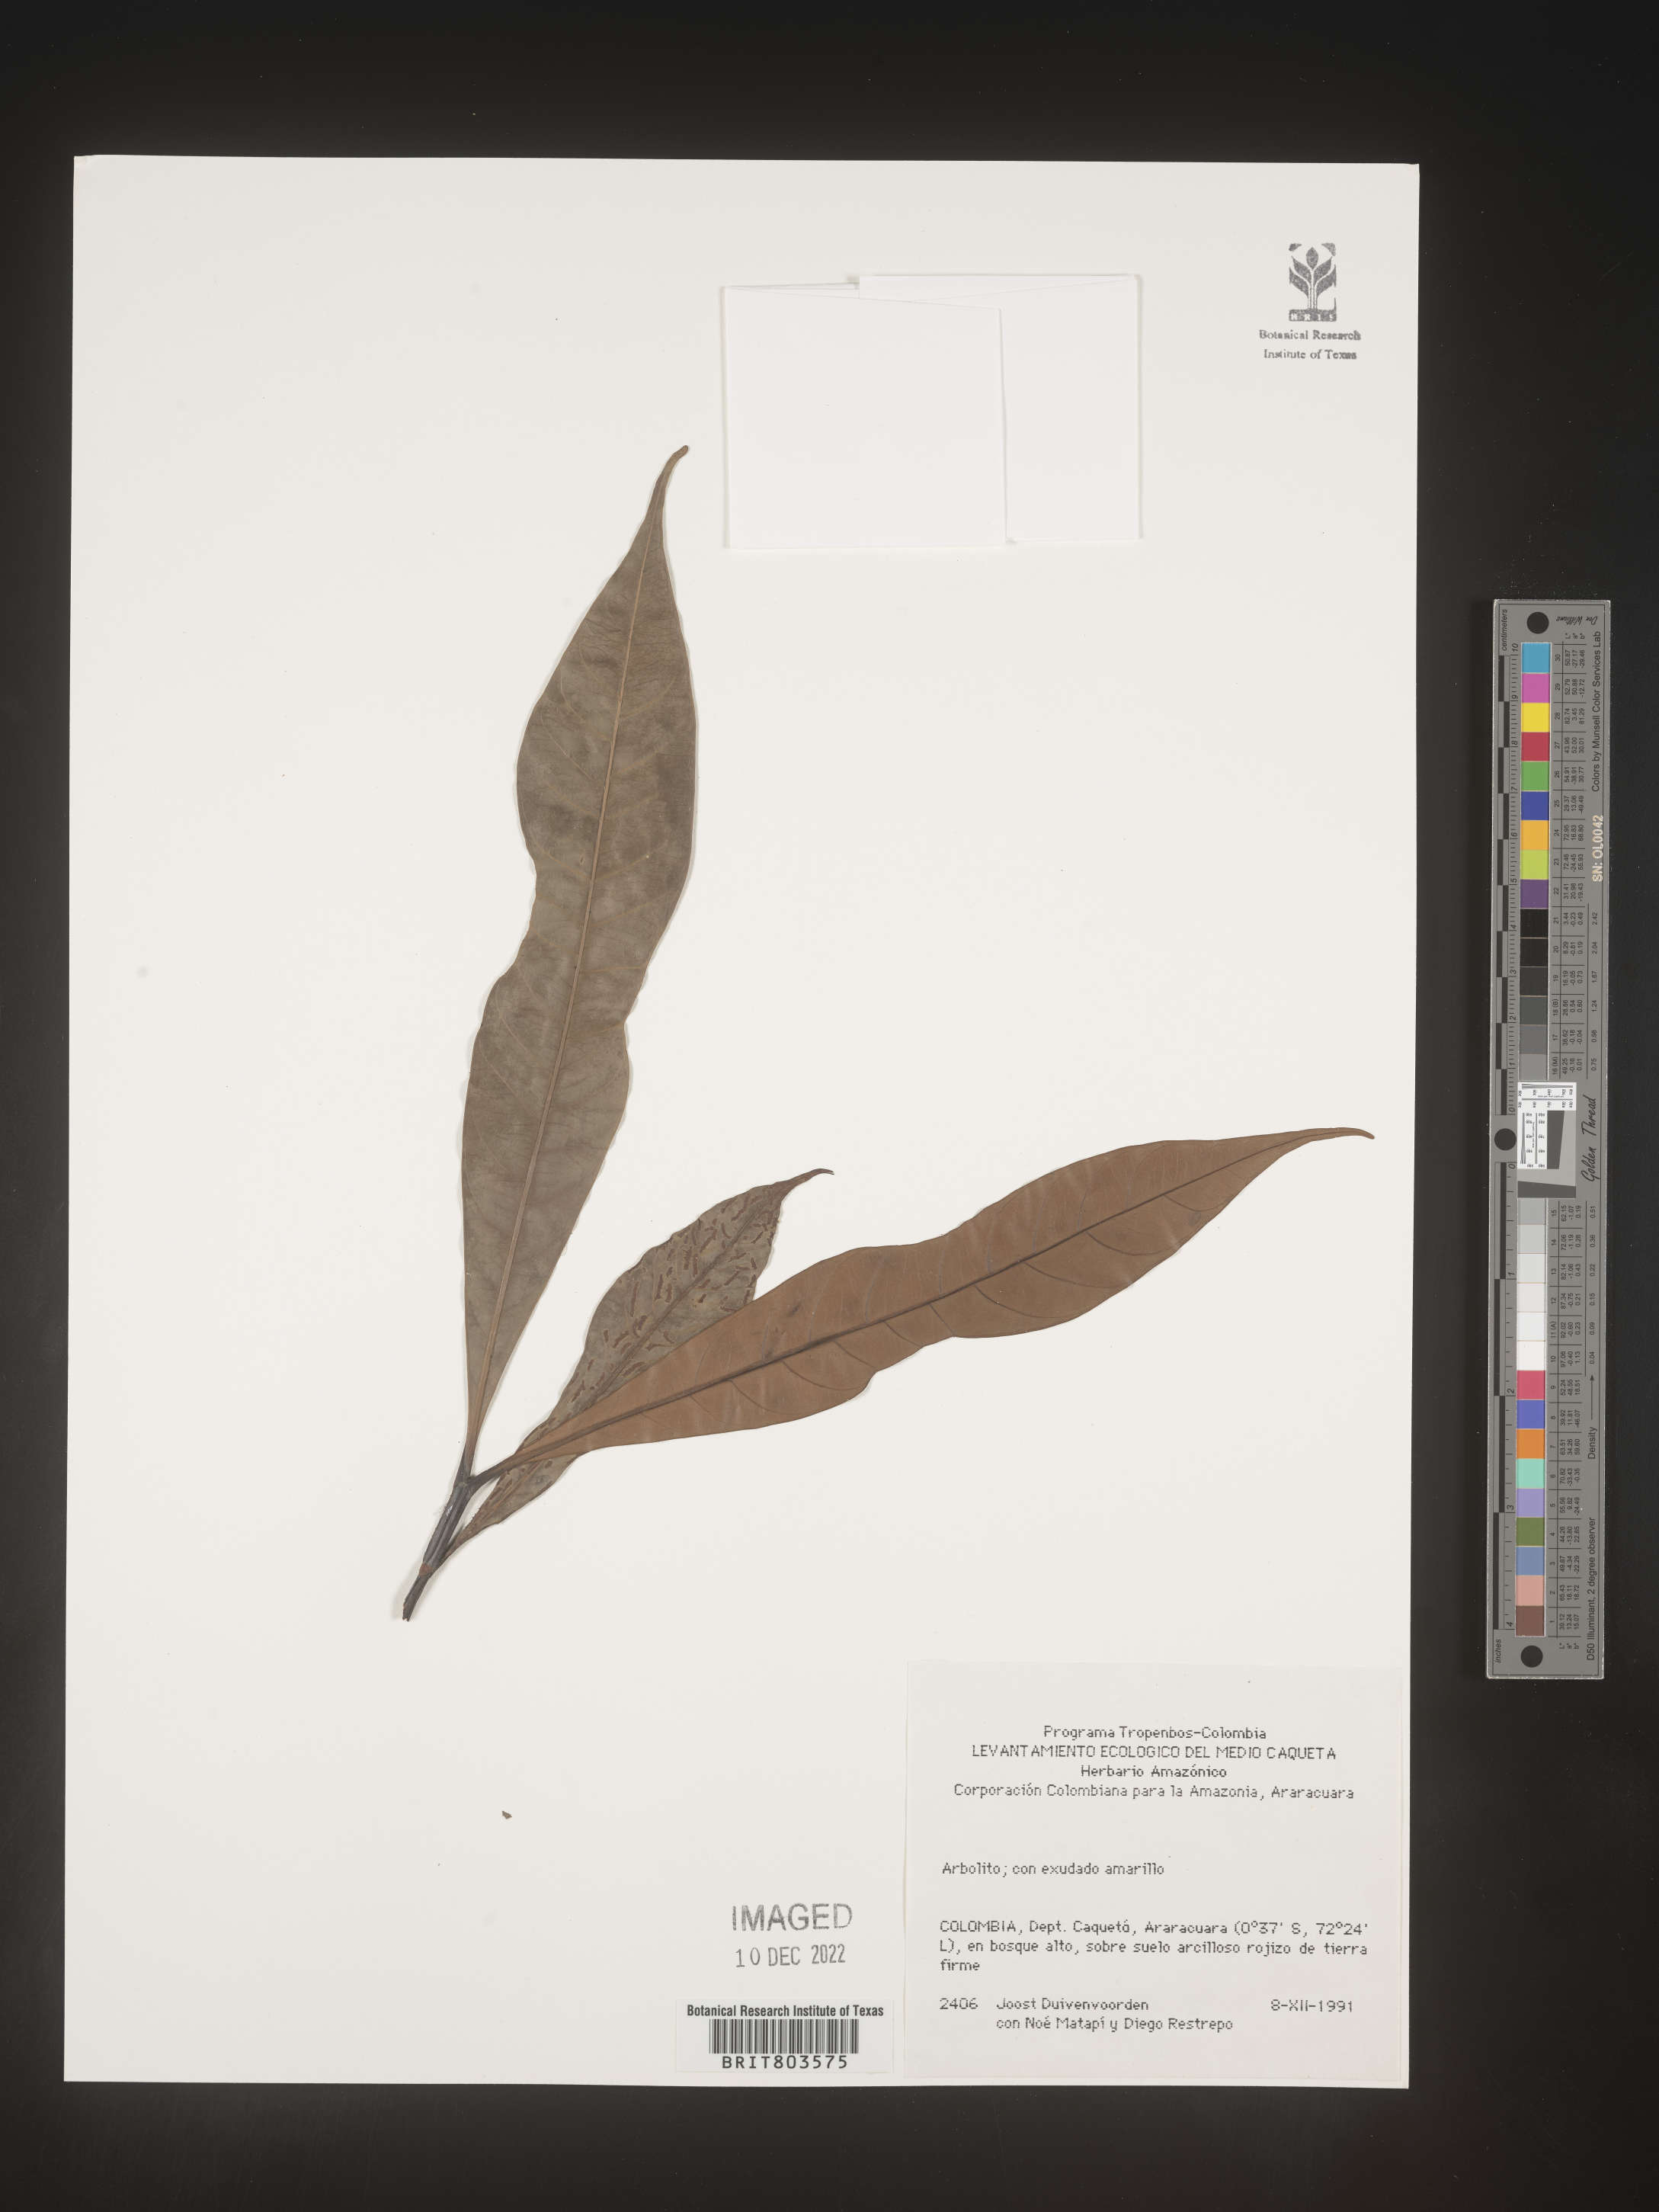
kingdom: Plantae
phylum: Tracheophyta
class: Magnoliopsida
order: Malpighiales
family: Clusiaceae
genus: Tovomita
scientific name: Tovomita
